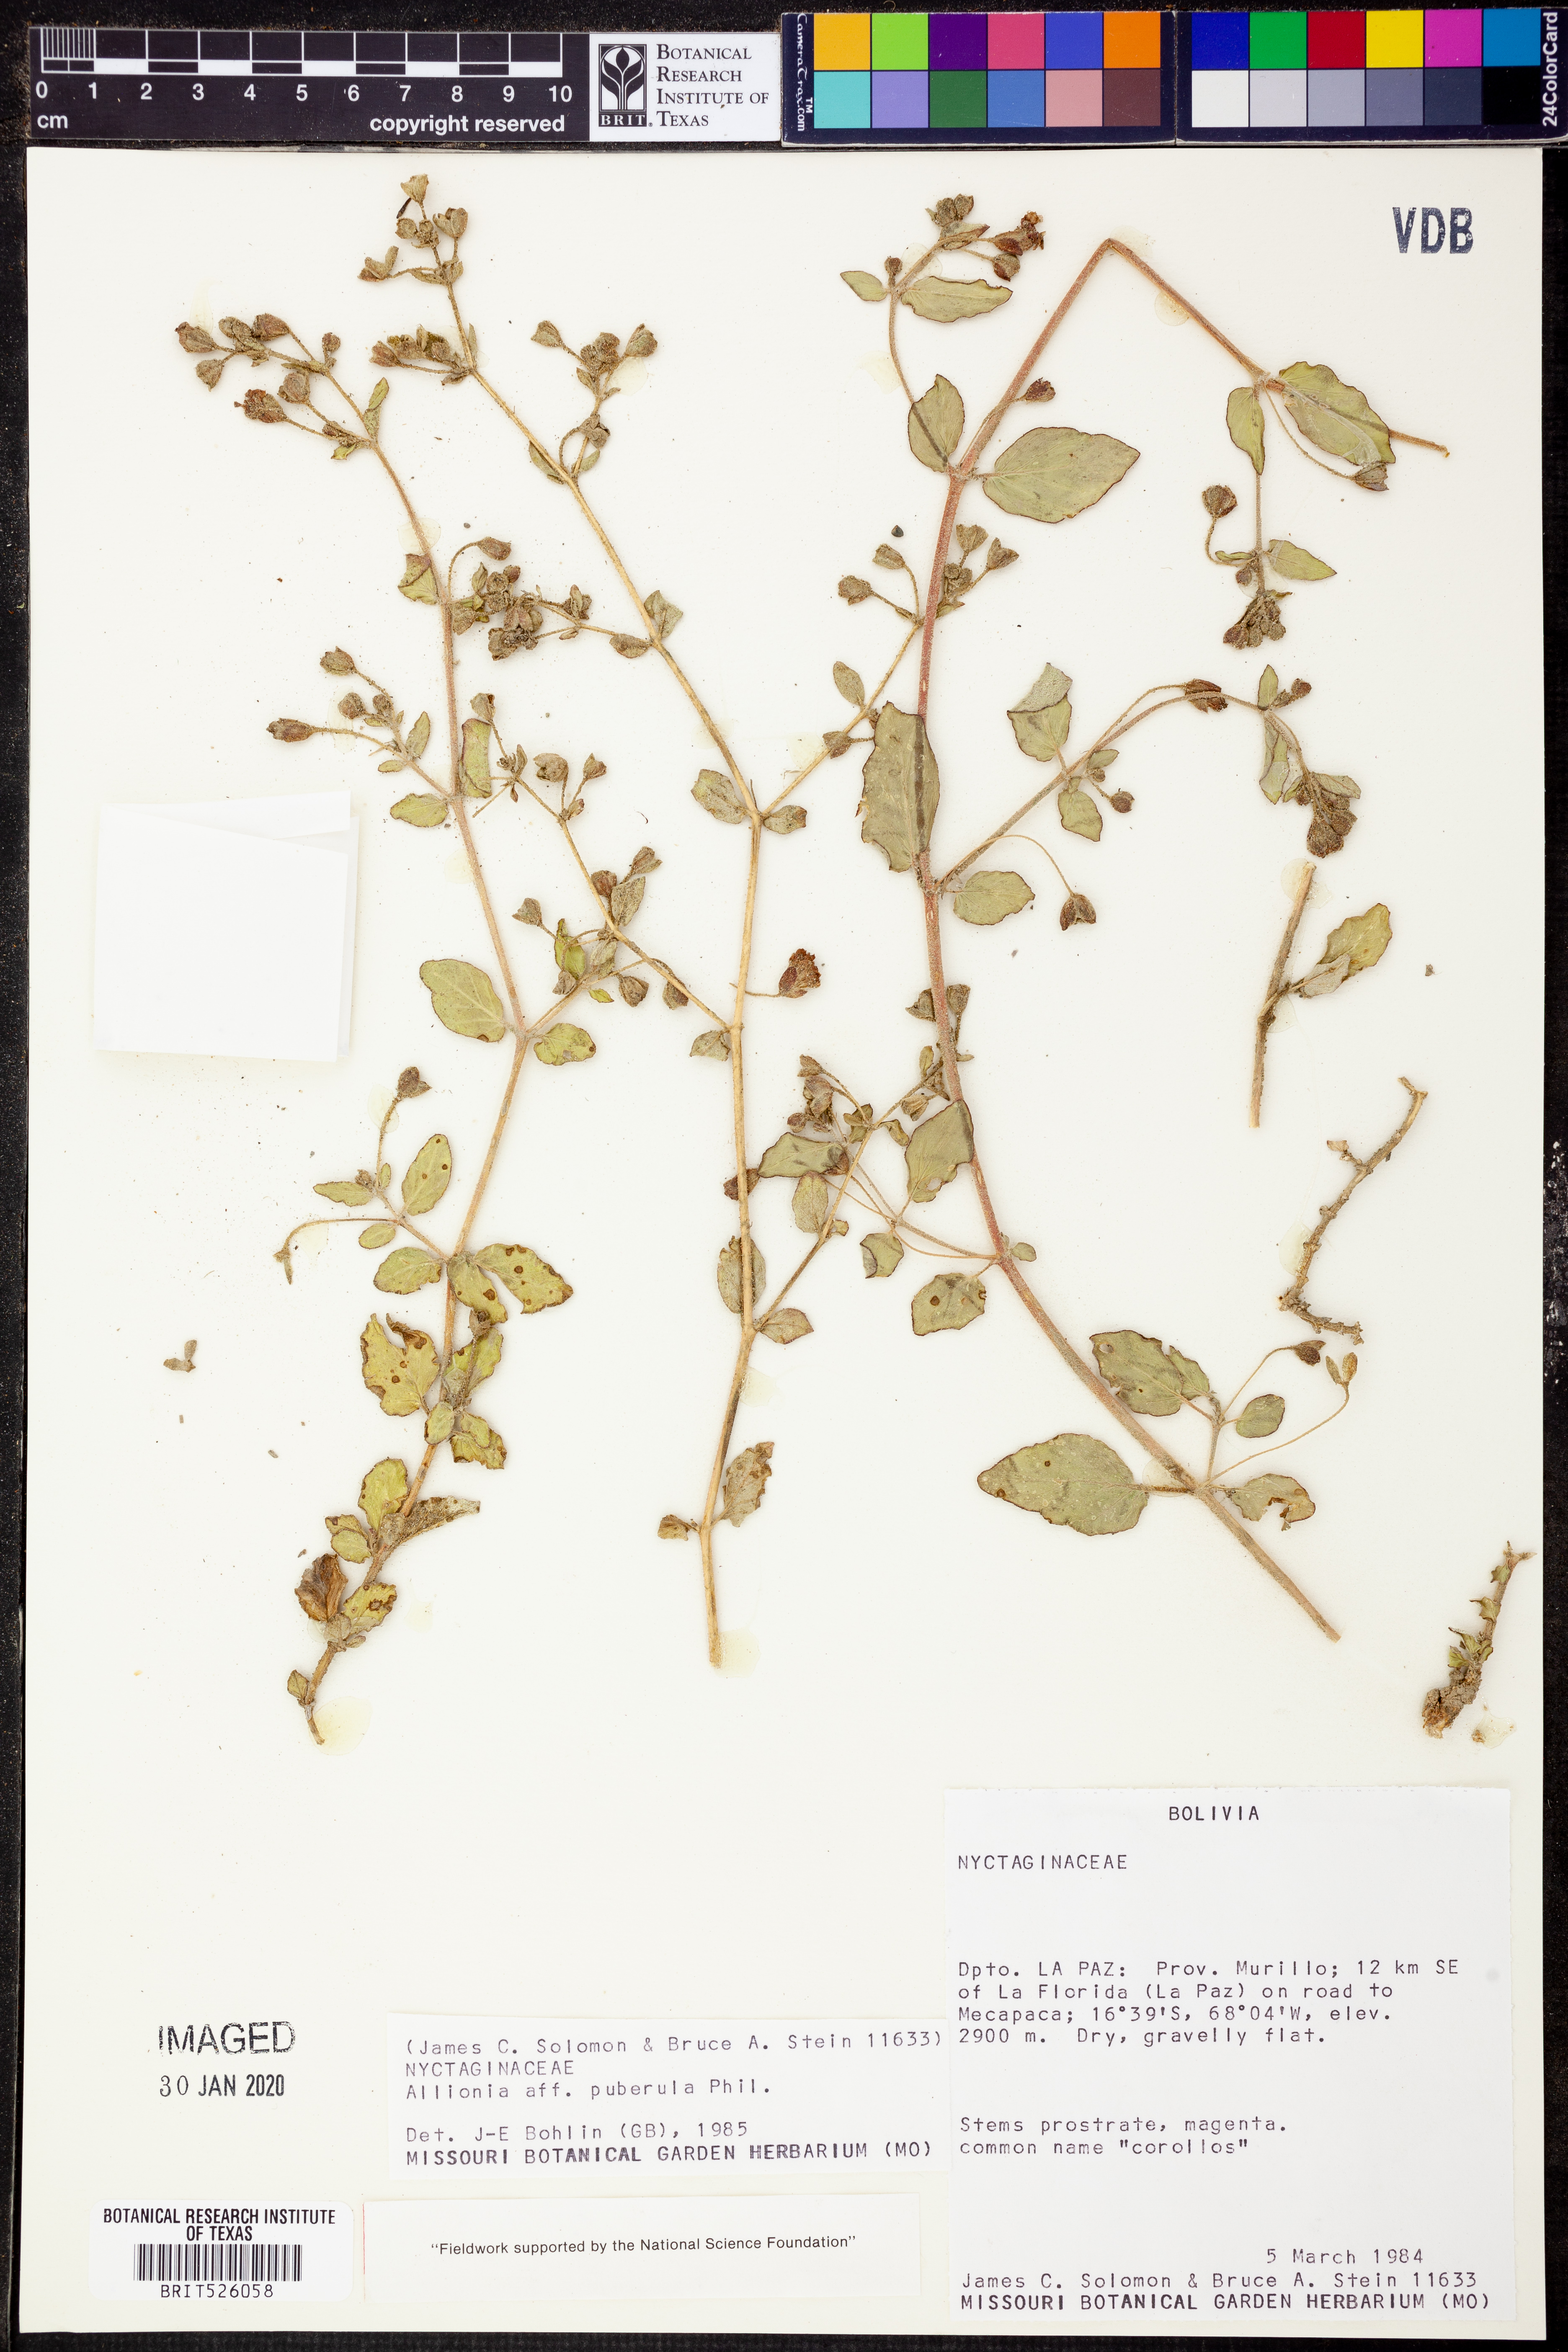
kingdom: Plantae
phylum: Tracheophyta
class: Magnoliopsida
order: Caryophyllales
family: Nyctaginaceae
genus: Allionia
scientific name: Allionia incarnata
